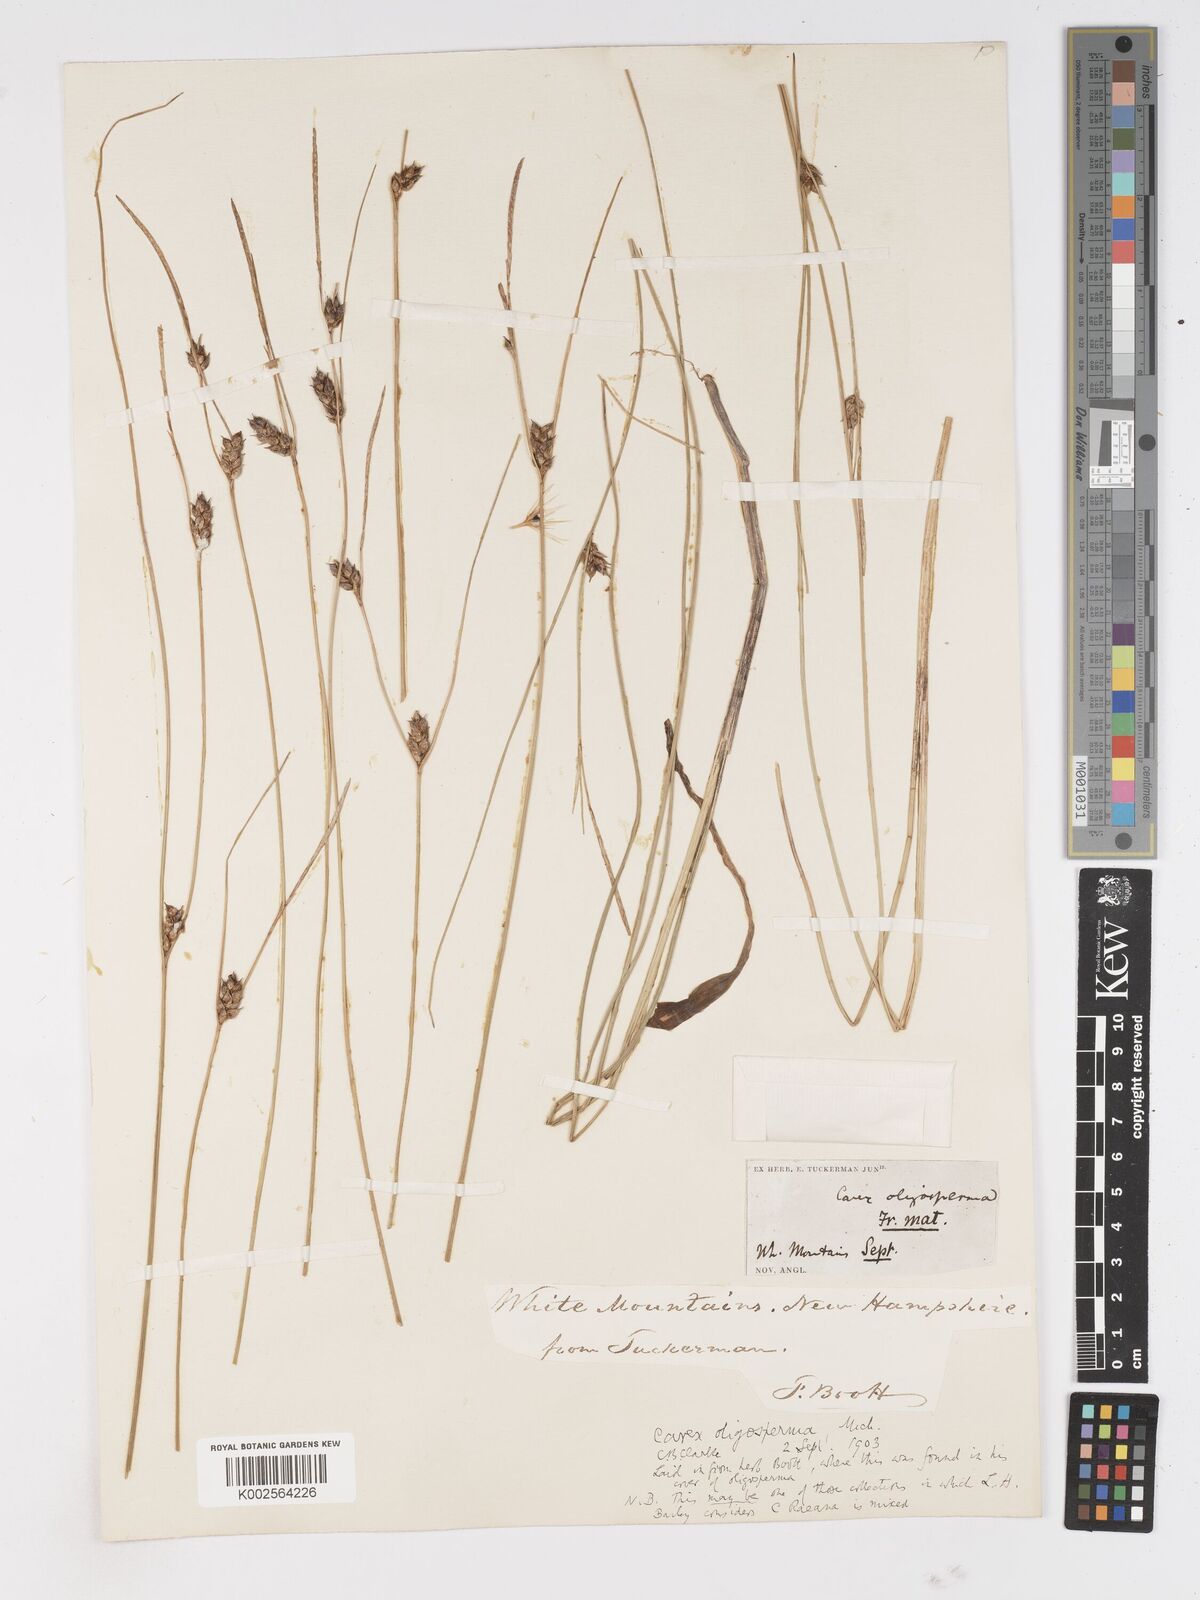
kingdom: Plantae
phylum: Tracheophyta
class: Liliopsida
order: Poales
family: Cyperaceae
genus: Carex
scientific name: Carex oligosperma
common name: Few-seed sedge
